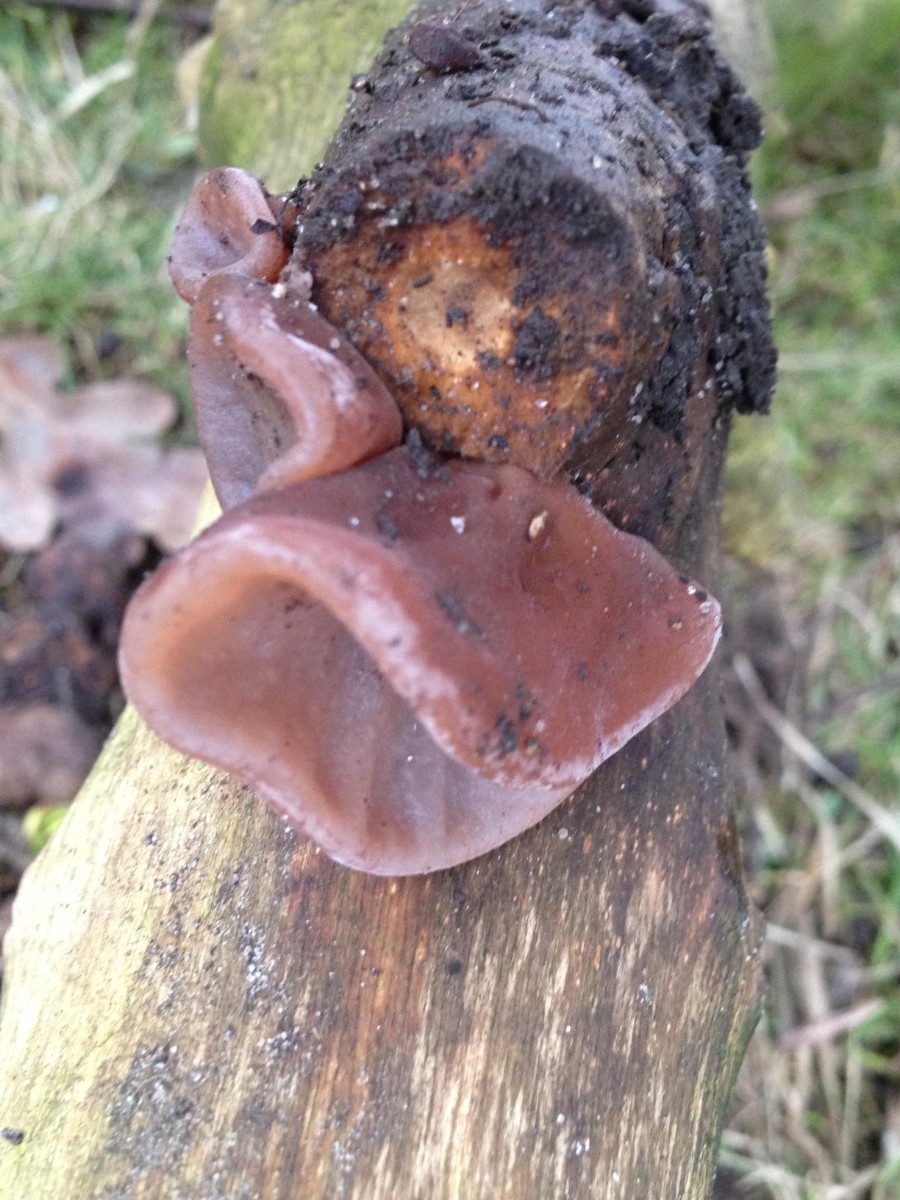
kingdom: Fungi
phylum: Basidiomycota
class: Agaricomycetes
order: Auriculariales
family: Auriculariaceae
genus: Auricularia
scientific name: Auricularia auricula-judae
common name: almindelig judasøre
